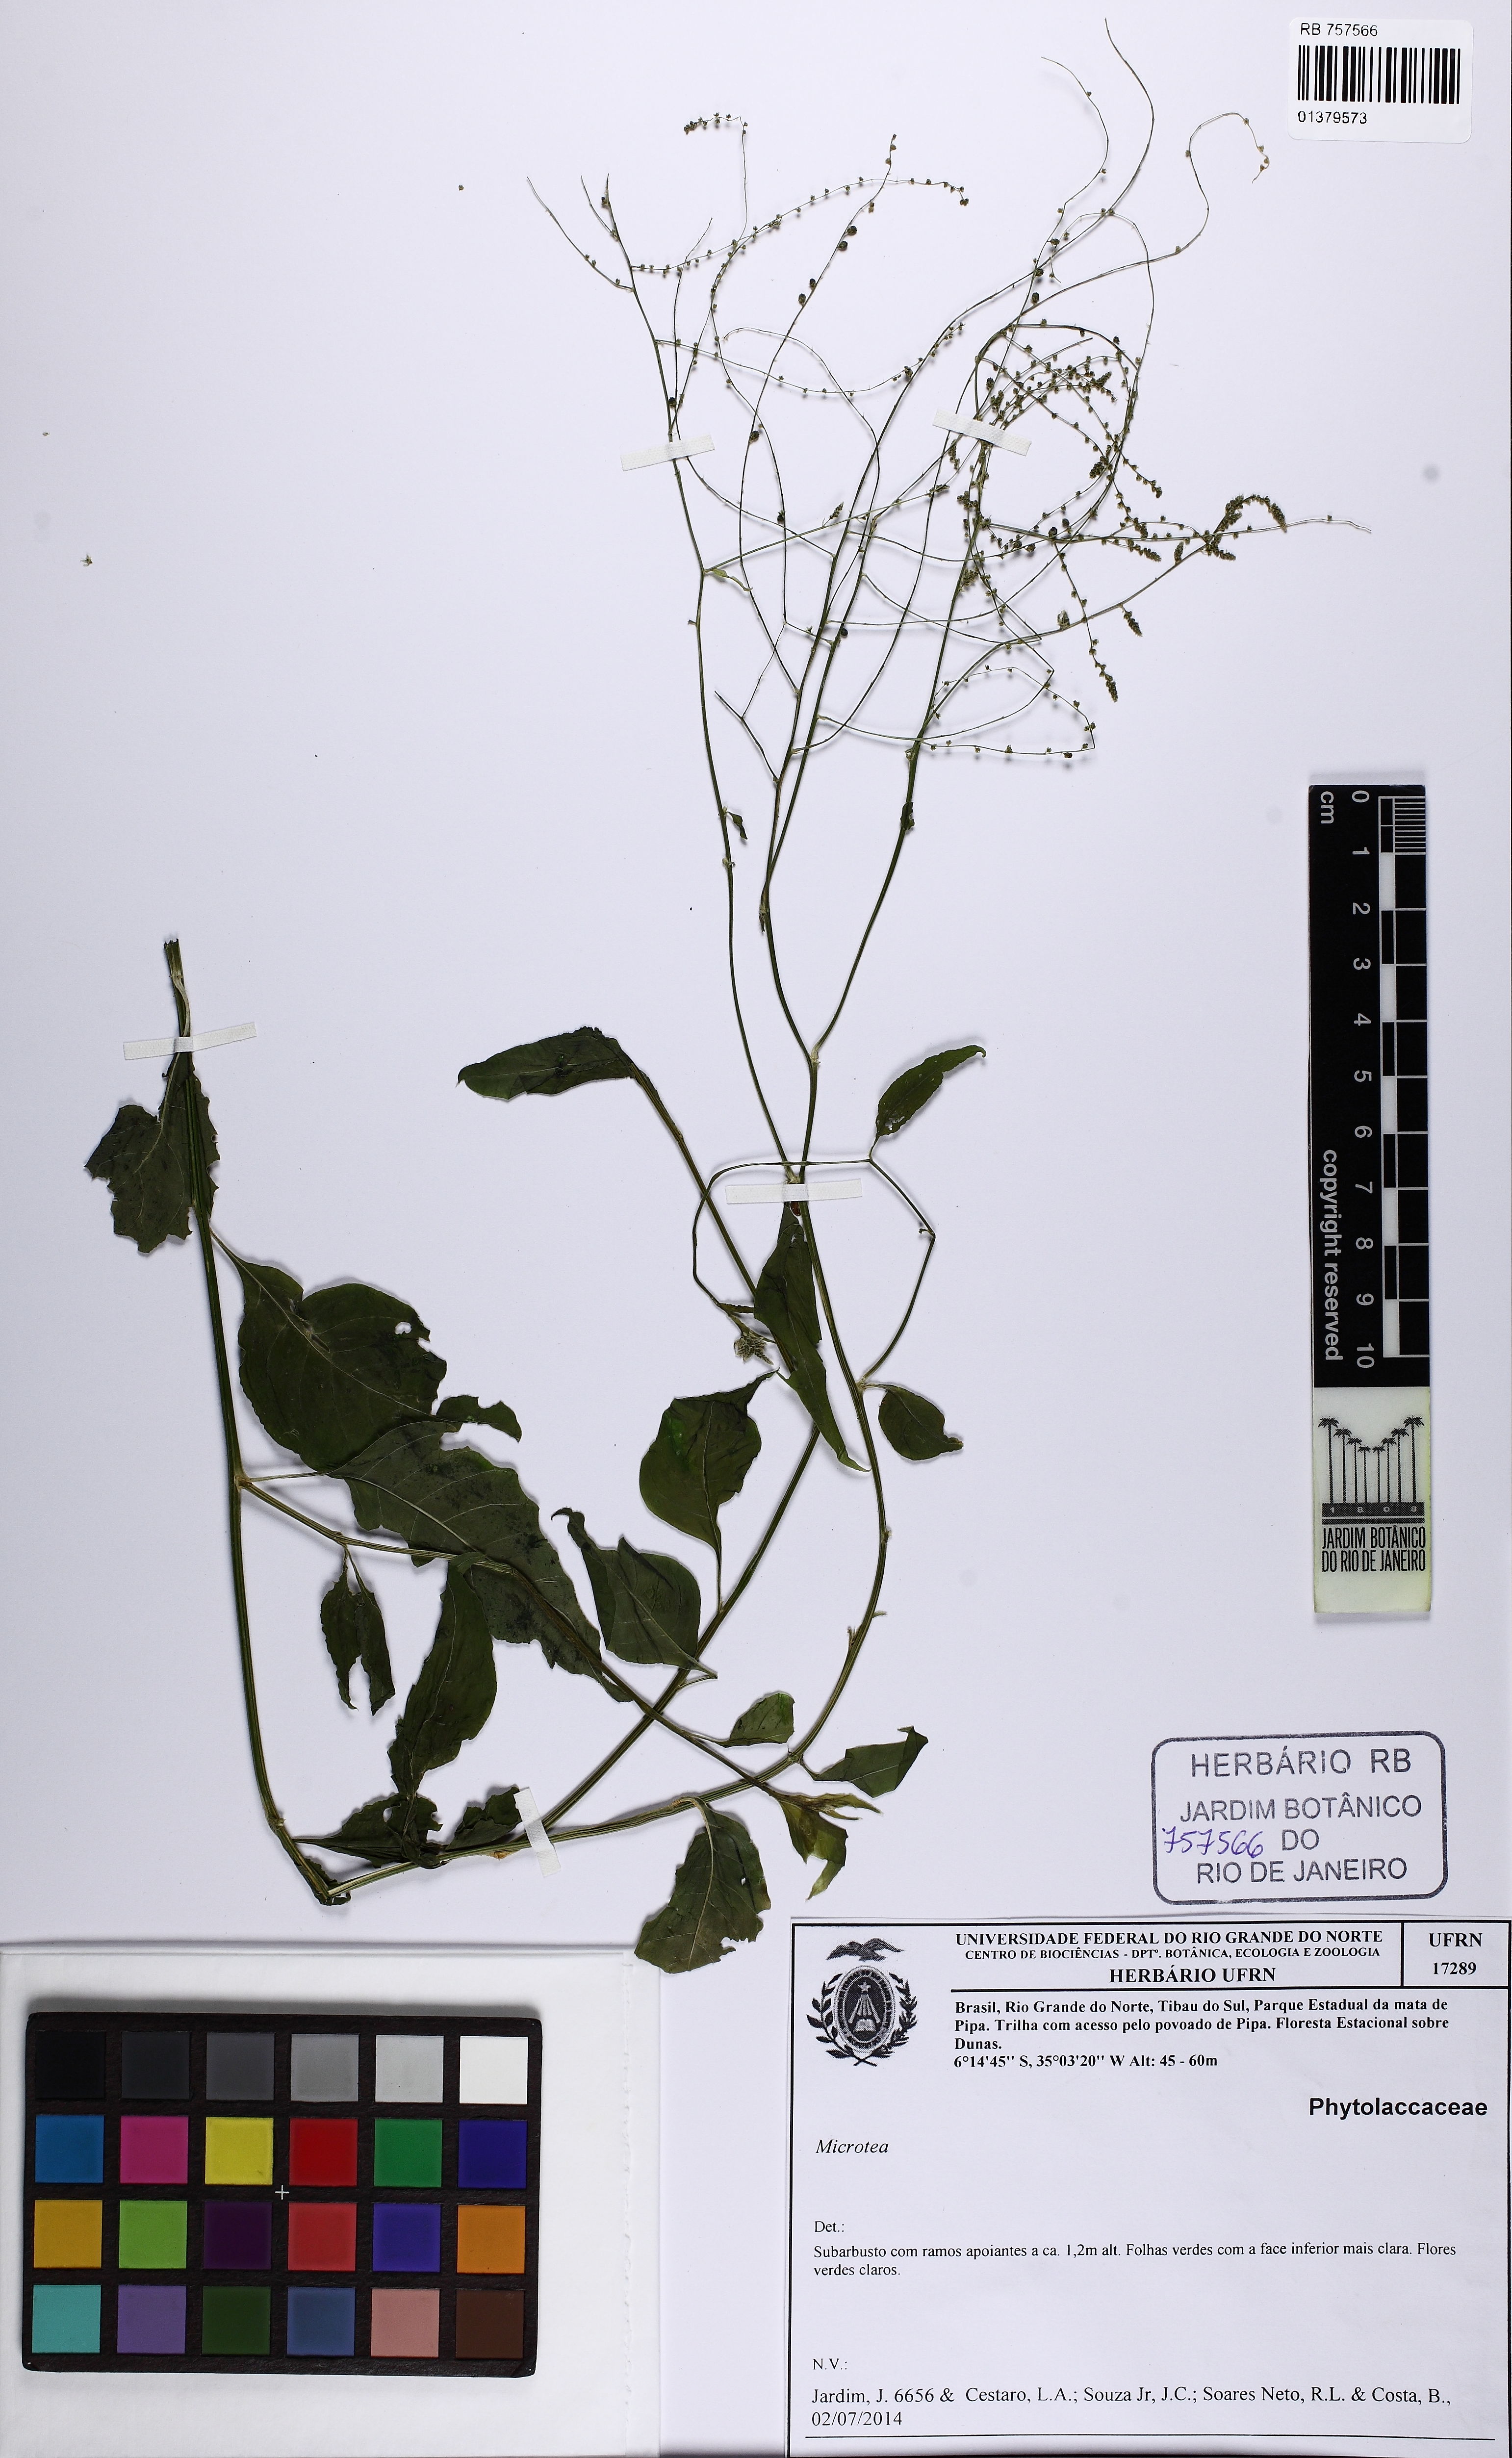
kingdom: Plantae
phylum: Tracheophyta
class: Magnoliopsida
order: Caryophyllales
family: Microteaceae
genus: Microtea
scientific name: Microtea
